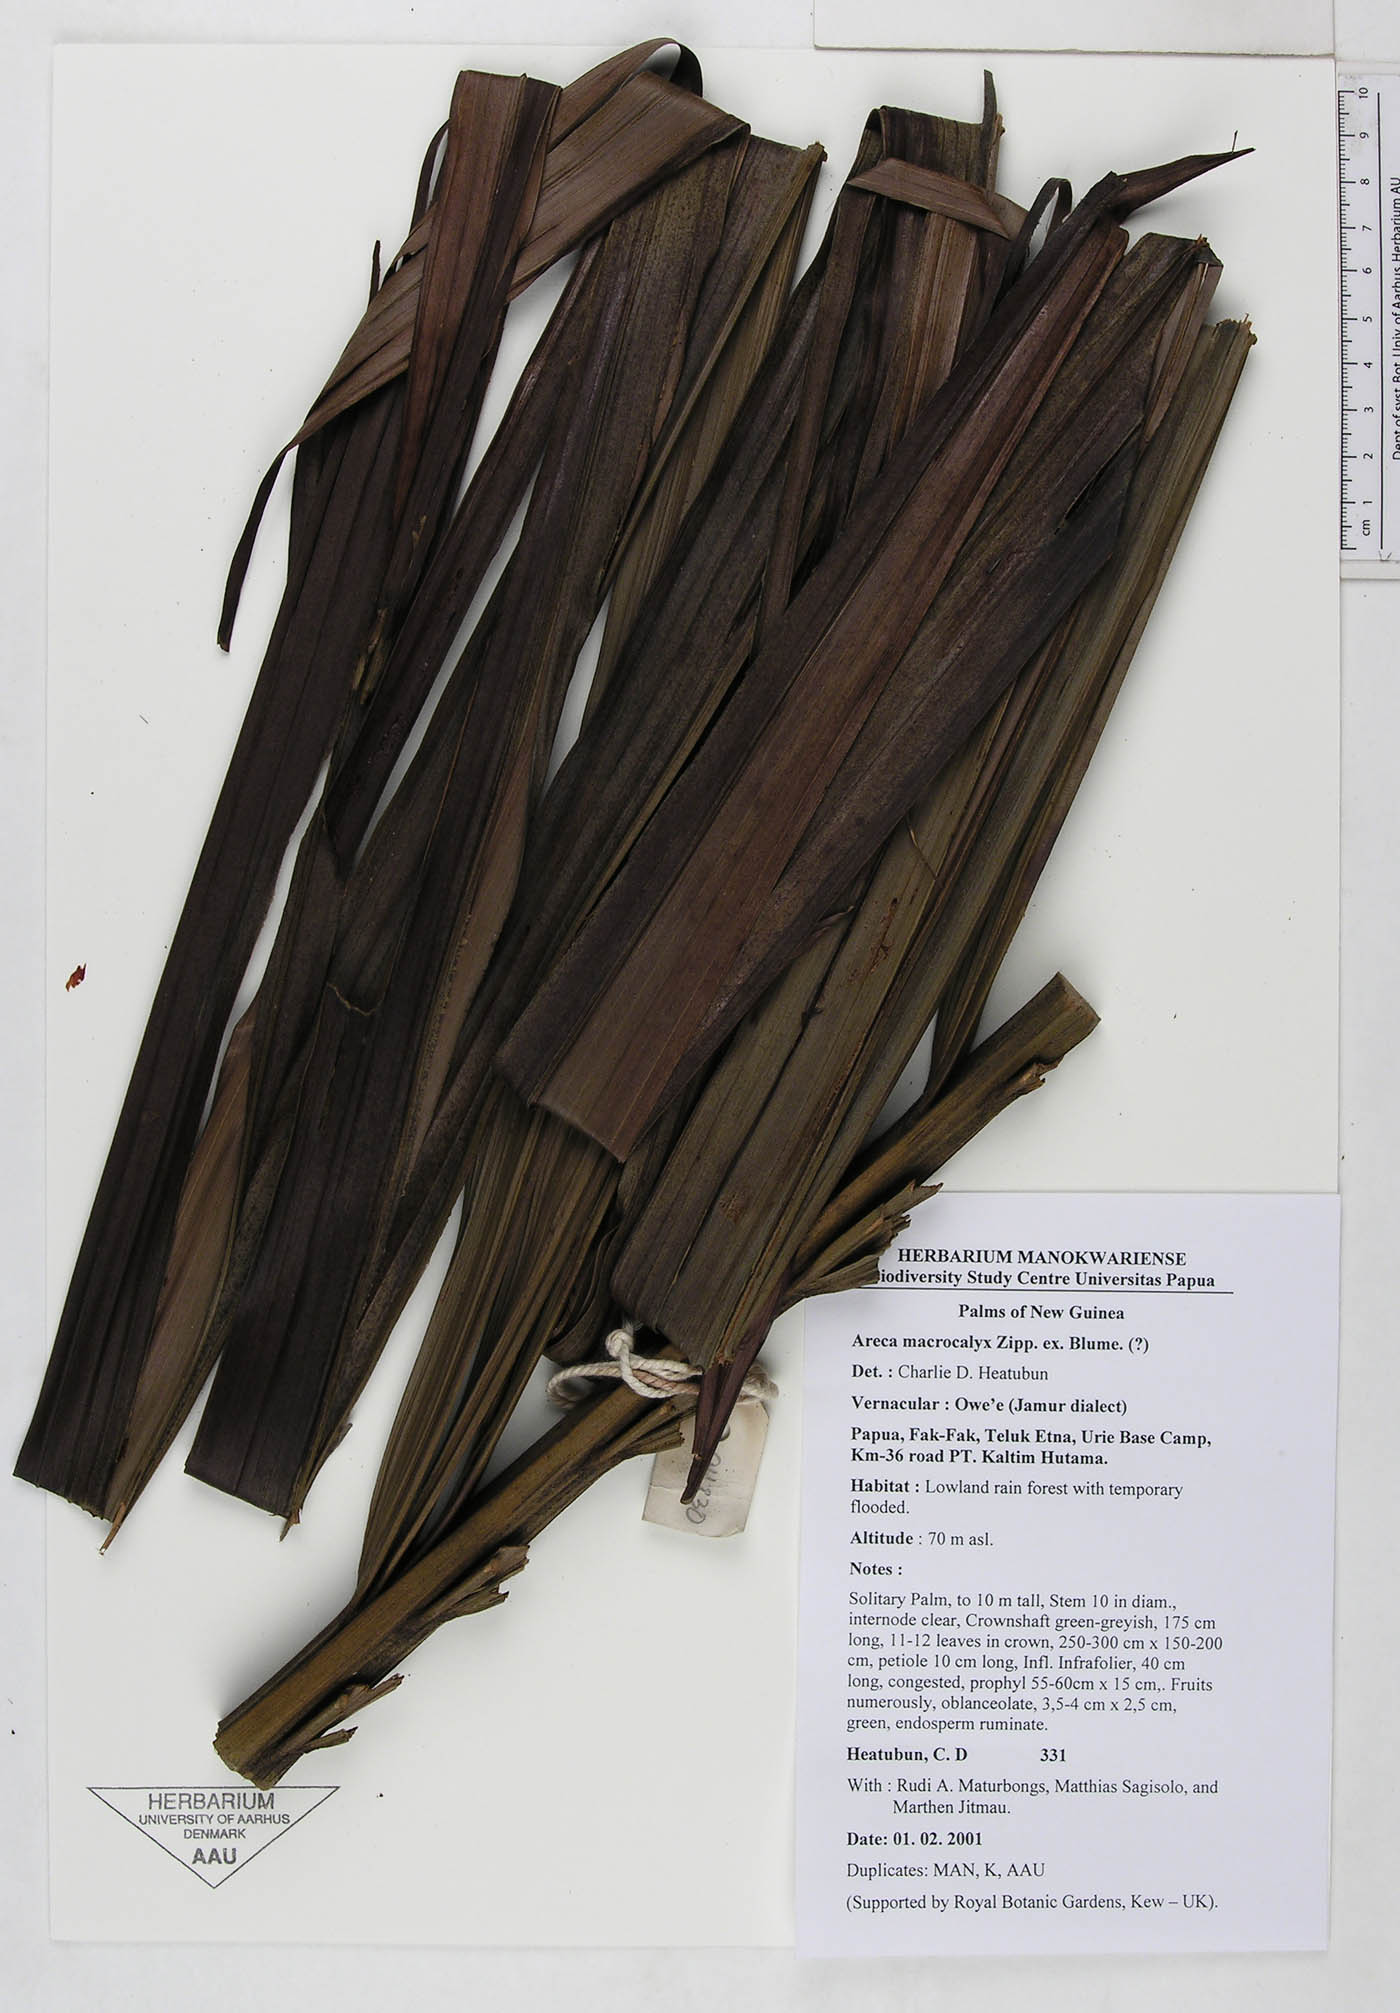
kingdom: Plantae
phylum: Tracheophyta
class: Liliopsida
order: Arecales
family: Arecaceae
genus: Areca
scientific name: Areca macrocalyx
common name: Highland betel-nut palm
